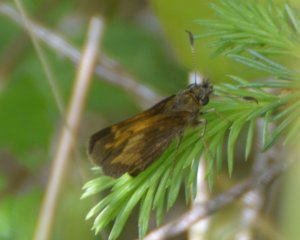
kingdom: Animalia
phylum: Arthropoda
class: Insecta
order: Lepidoptera
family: Hesperiidae
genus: Lon
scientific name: Lon hobomok
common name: Hobomok Skipper
